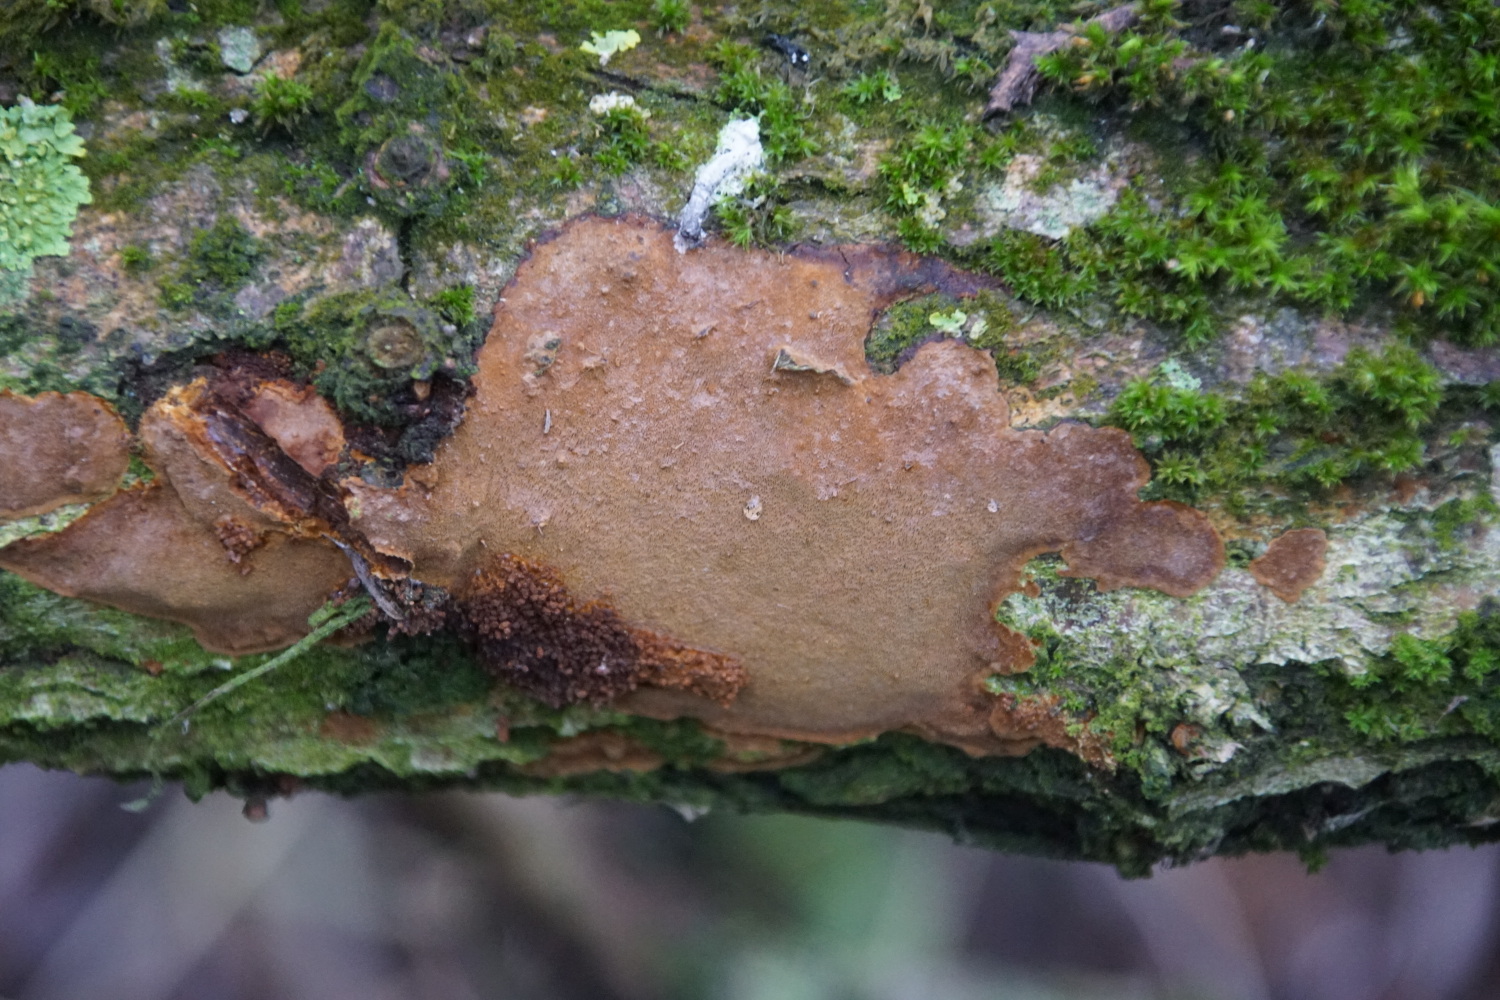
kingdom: Fungi
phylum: Basidiomycota
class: Agaricomycetes
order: Hymenochaetales
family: Hymenochaetaceae
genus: Fuscoporia
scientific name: Fuscoporia ferrea
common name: skorpe-ildporesvamp
